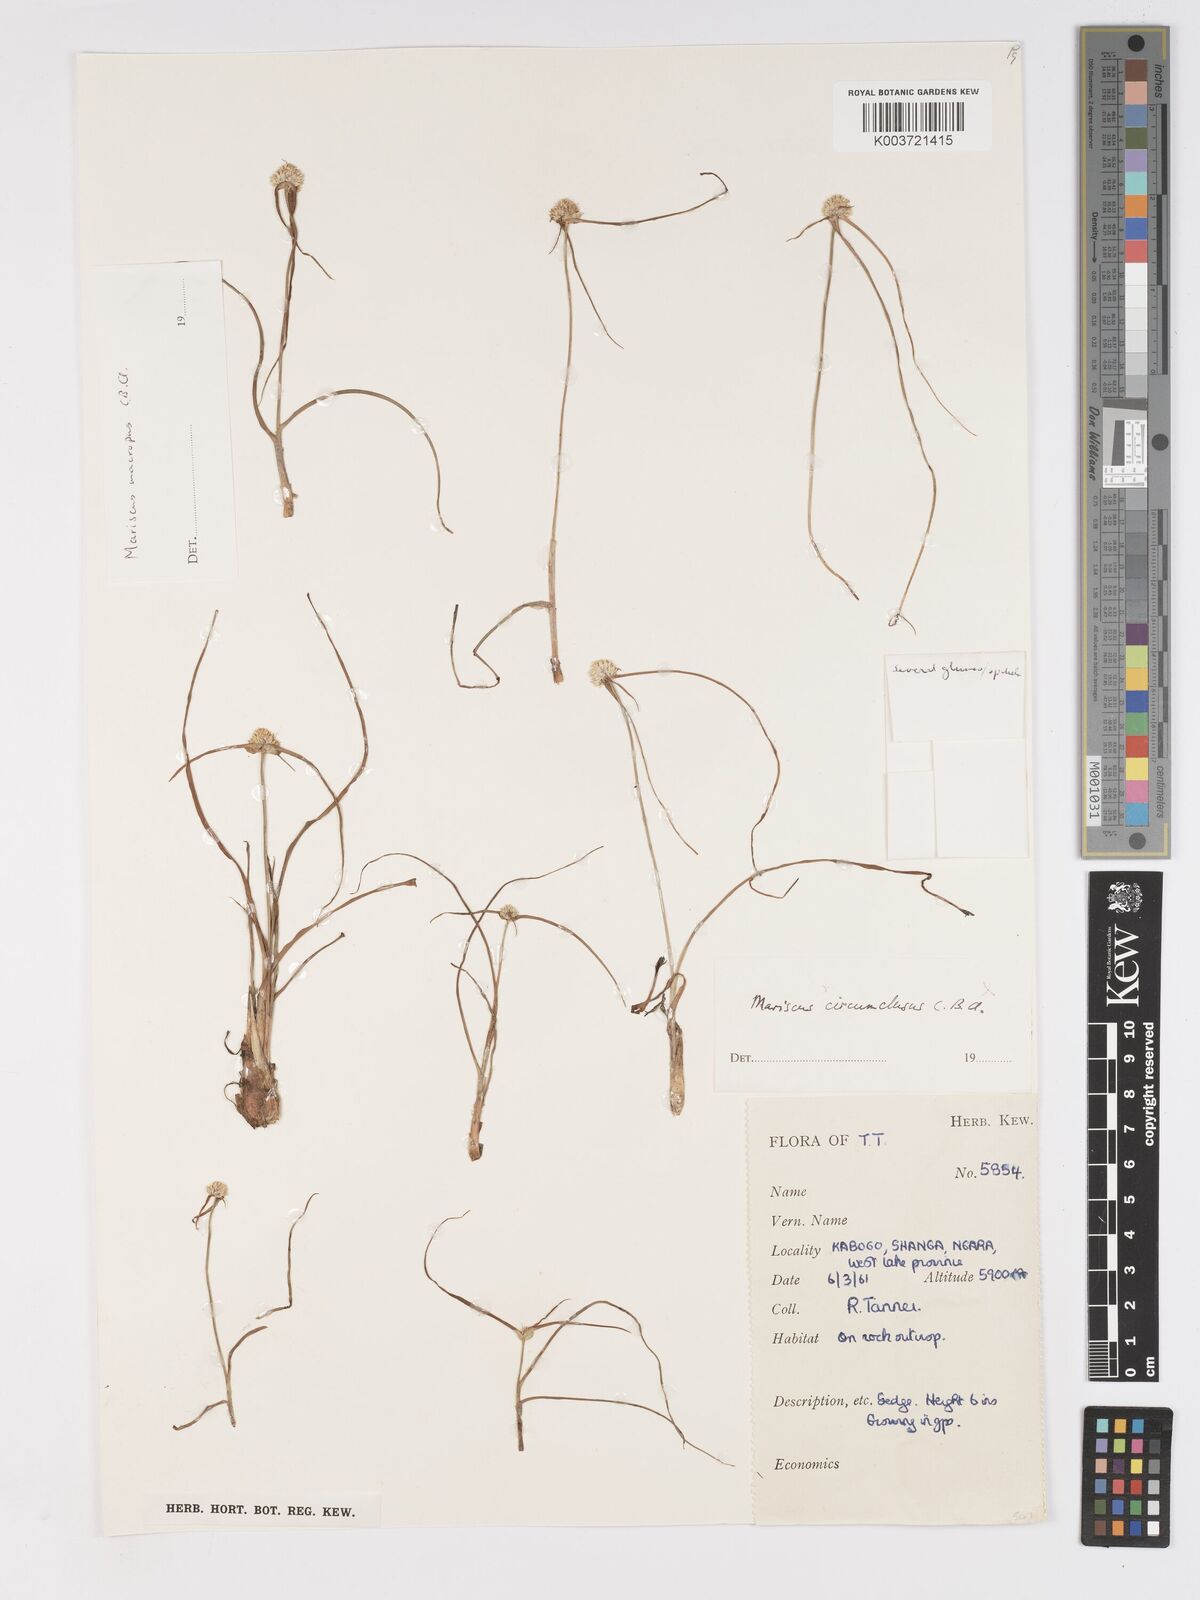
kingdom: Plantae
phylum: Tracheophyta
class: Liliopsida
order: Poales
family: Cyperaceae
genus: Cyperus
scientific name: Cyperus mollipes
